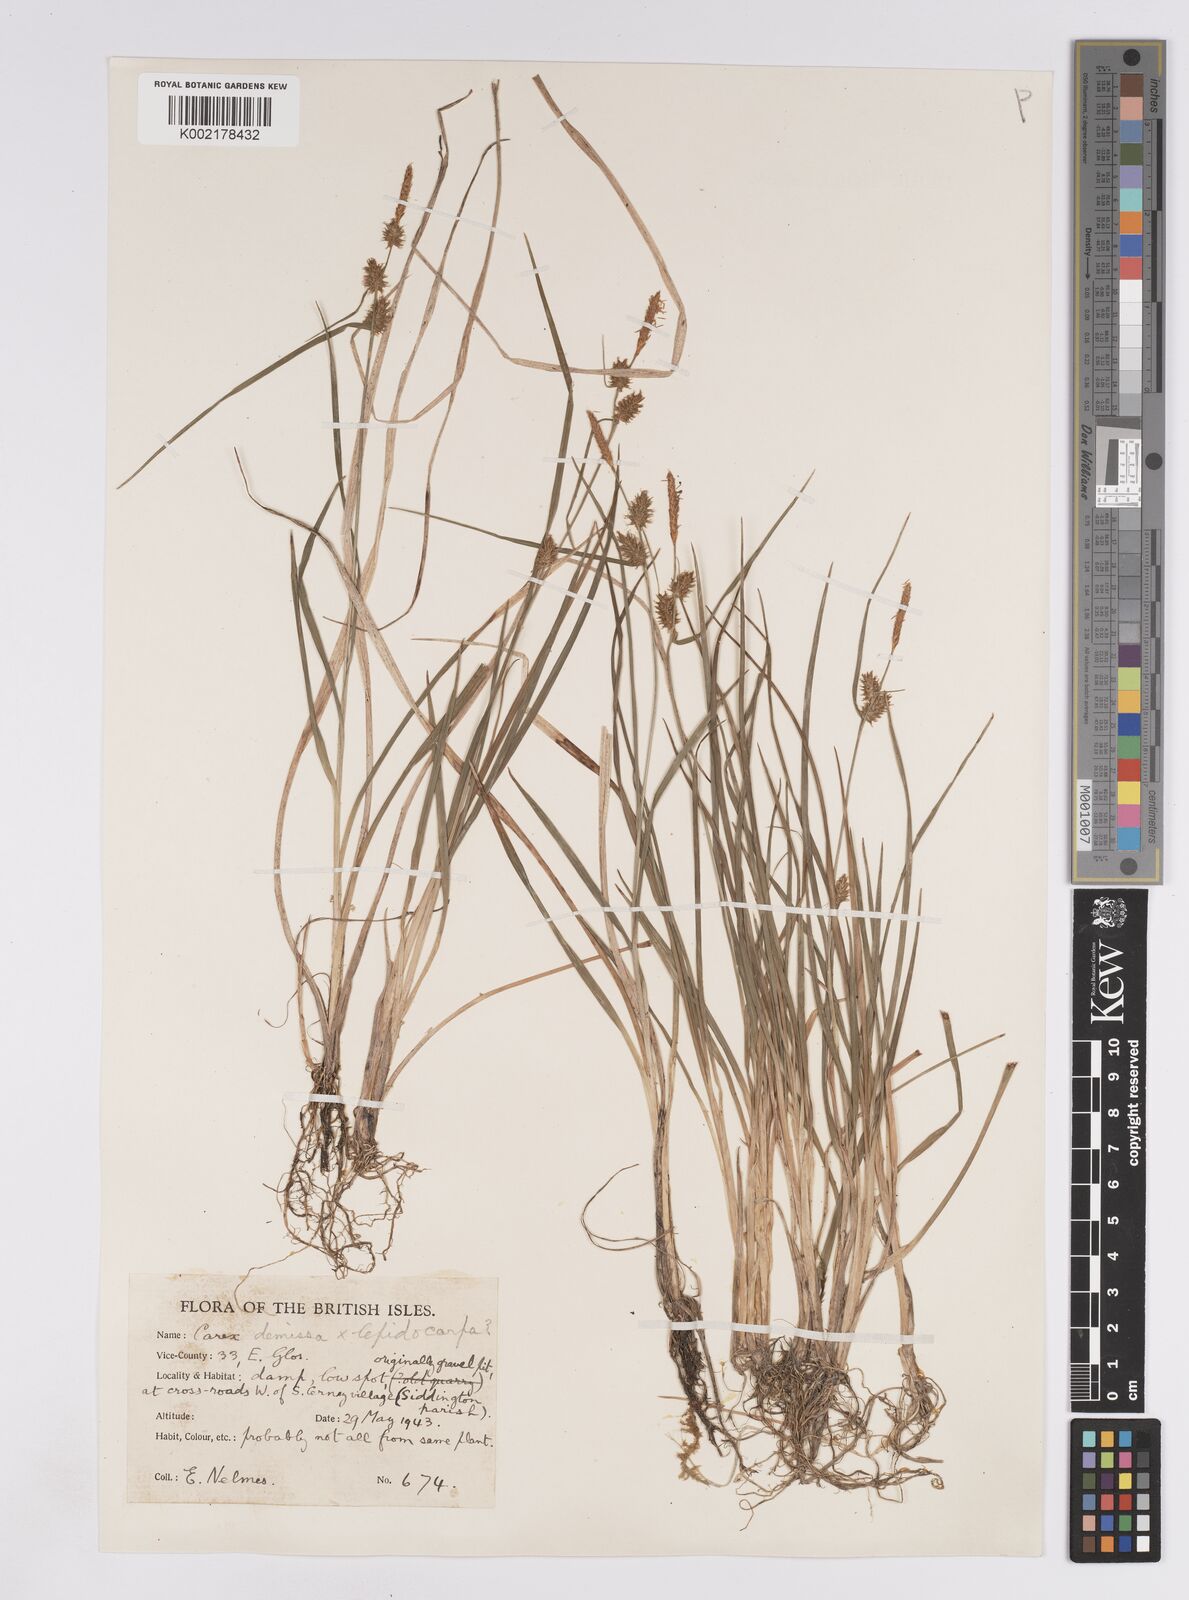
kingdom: Plantae
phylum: Tracheophyta
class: Liliopsida
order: Poales
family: Cyperaceae
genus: Carex
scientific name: Carex lepidocarpa
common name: Long-stalked yellow-sedge
